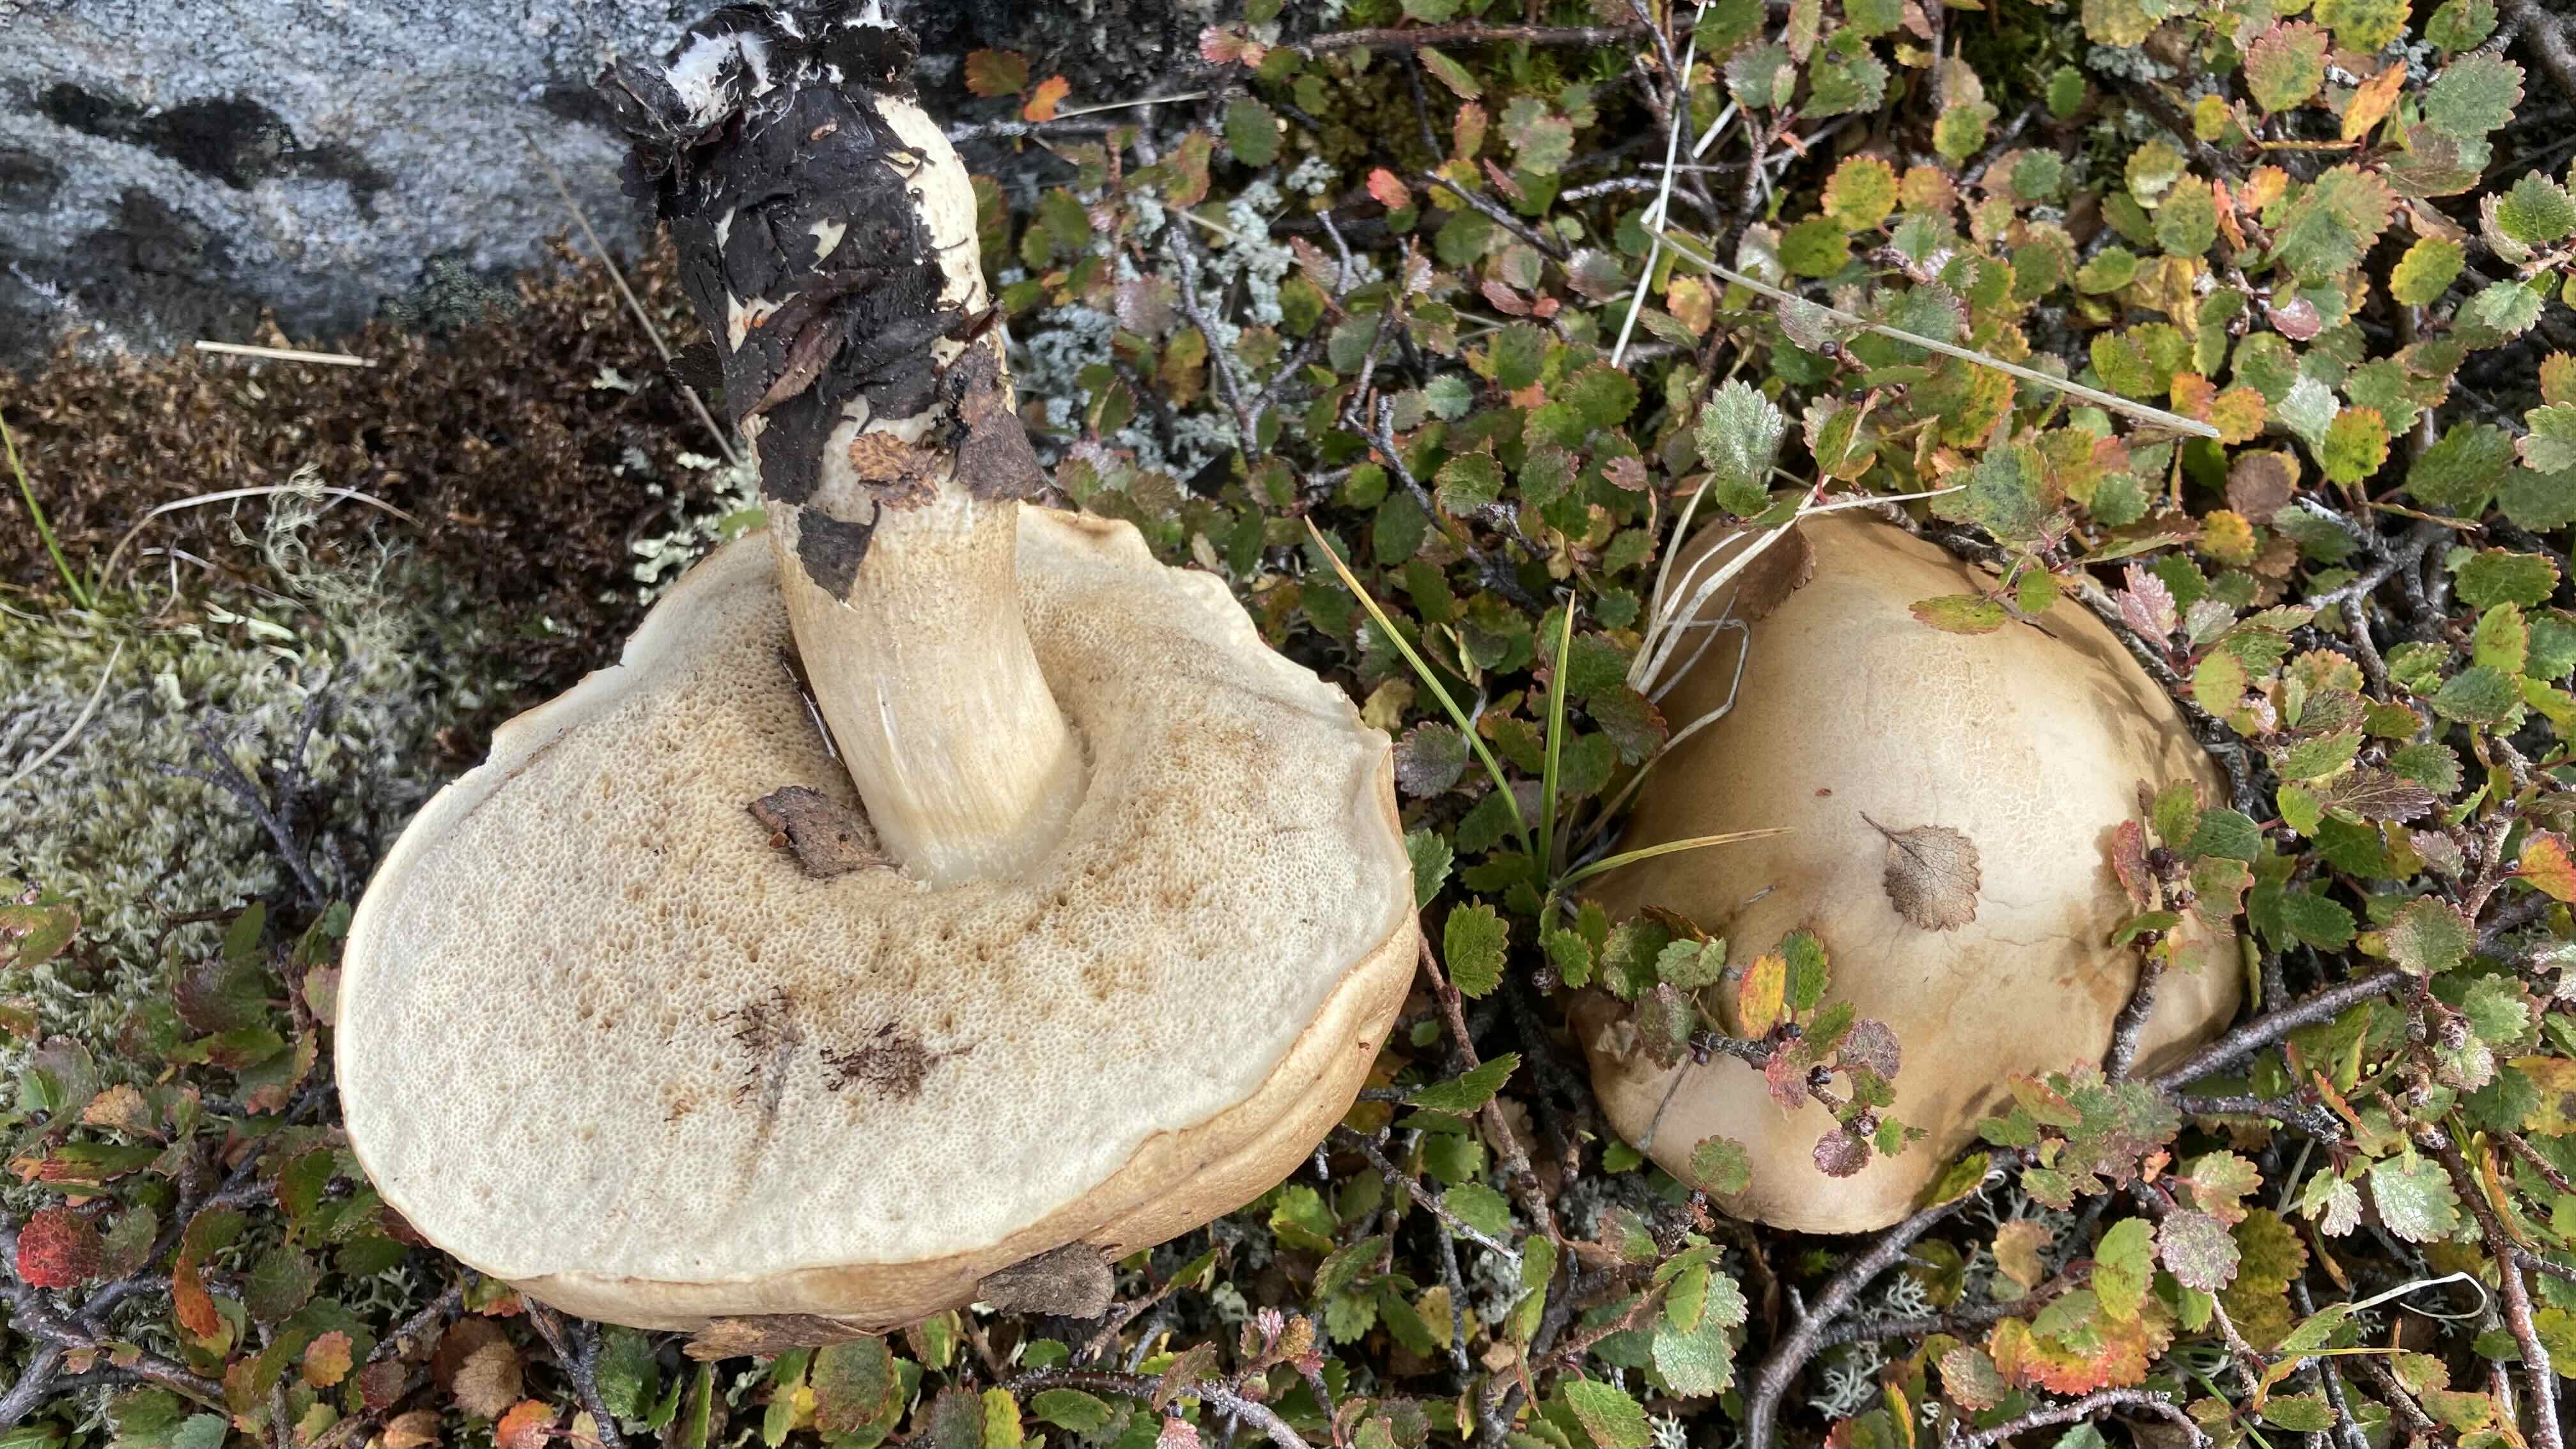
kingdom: Fungi
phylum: Basidiomycota
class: Agaricomycetes
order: Boletales
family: Boletaceae
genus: Leccinum
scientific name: Leccinum scabrum
